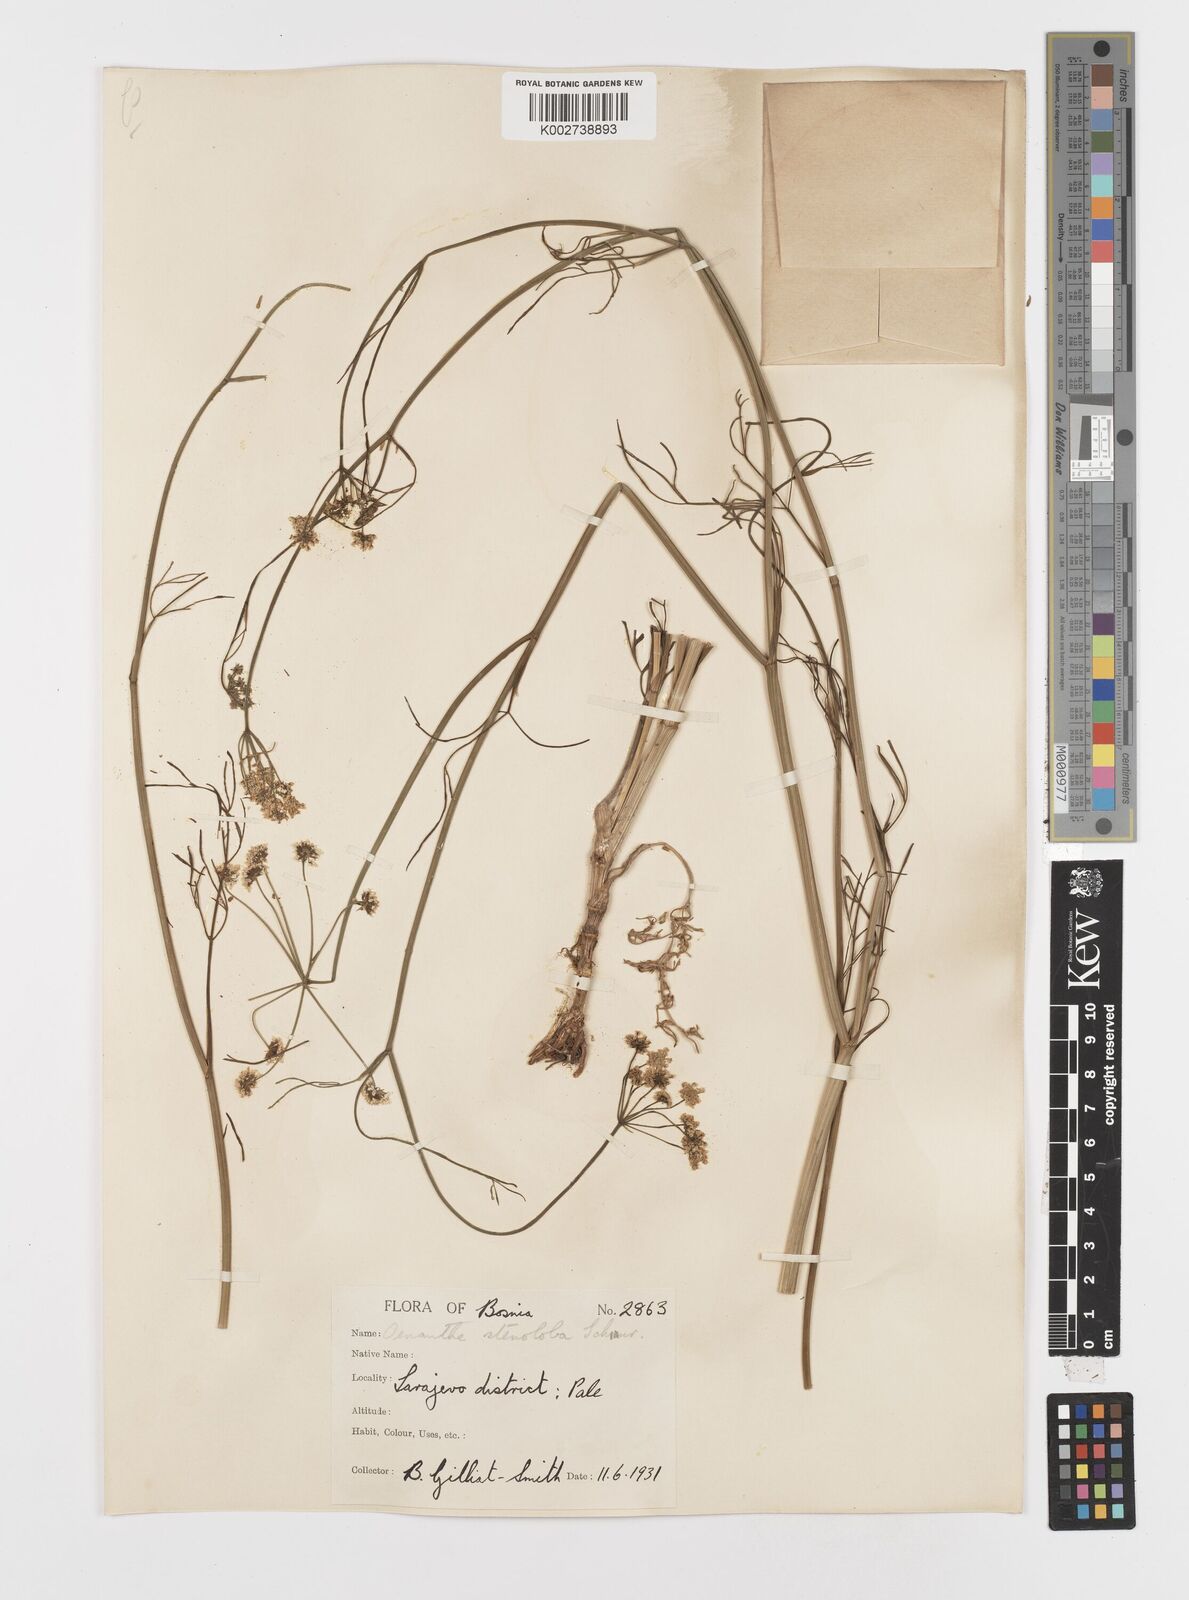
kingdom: Plantae
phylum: Tracheophyta
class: Magnoliopsida
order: Apiales
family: Apiaceae
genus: Oenanthe
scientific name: Oenanthe peucedanifolia
